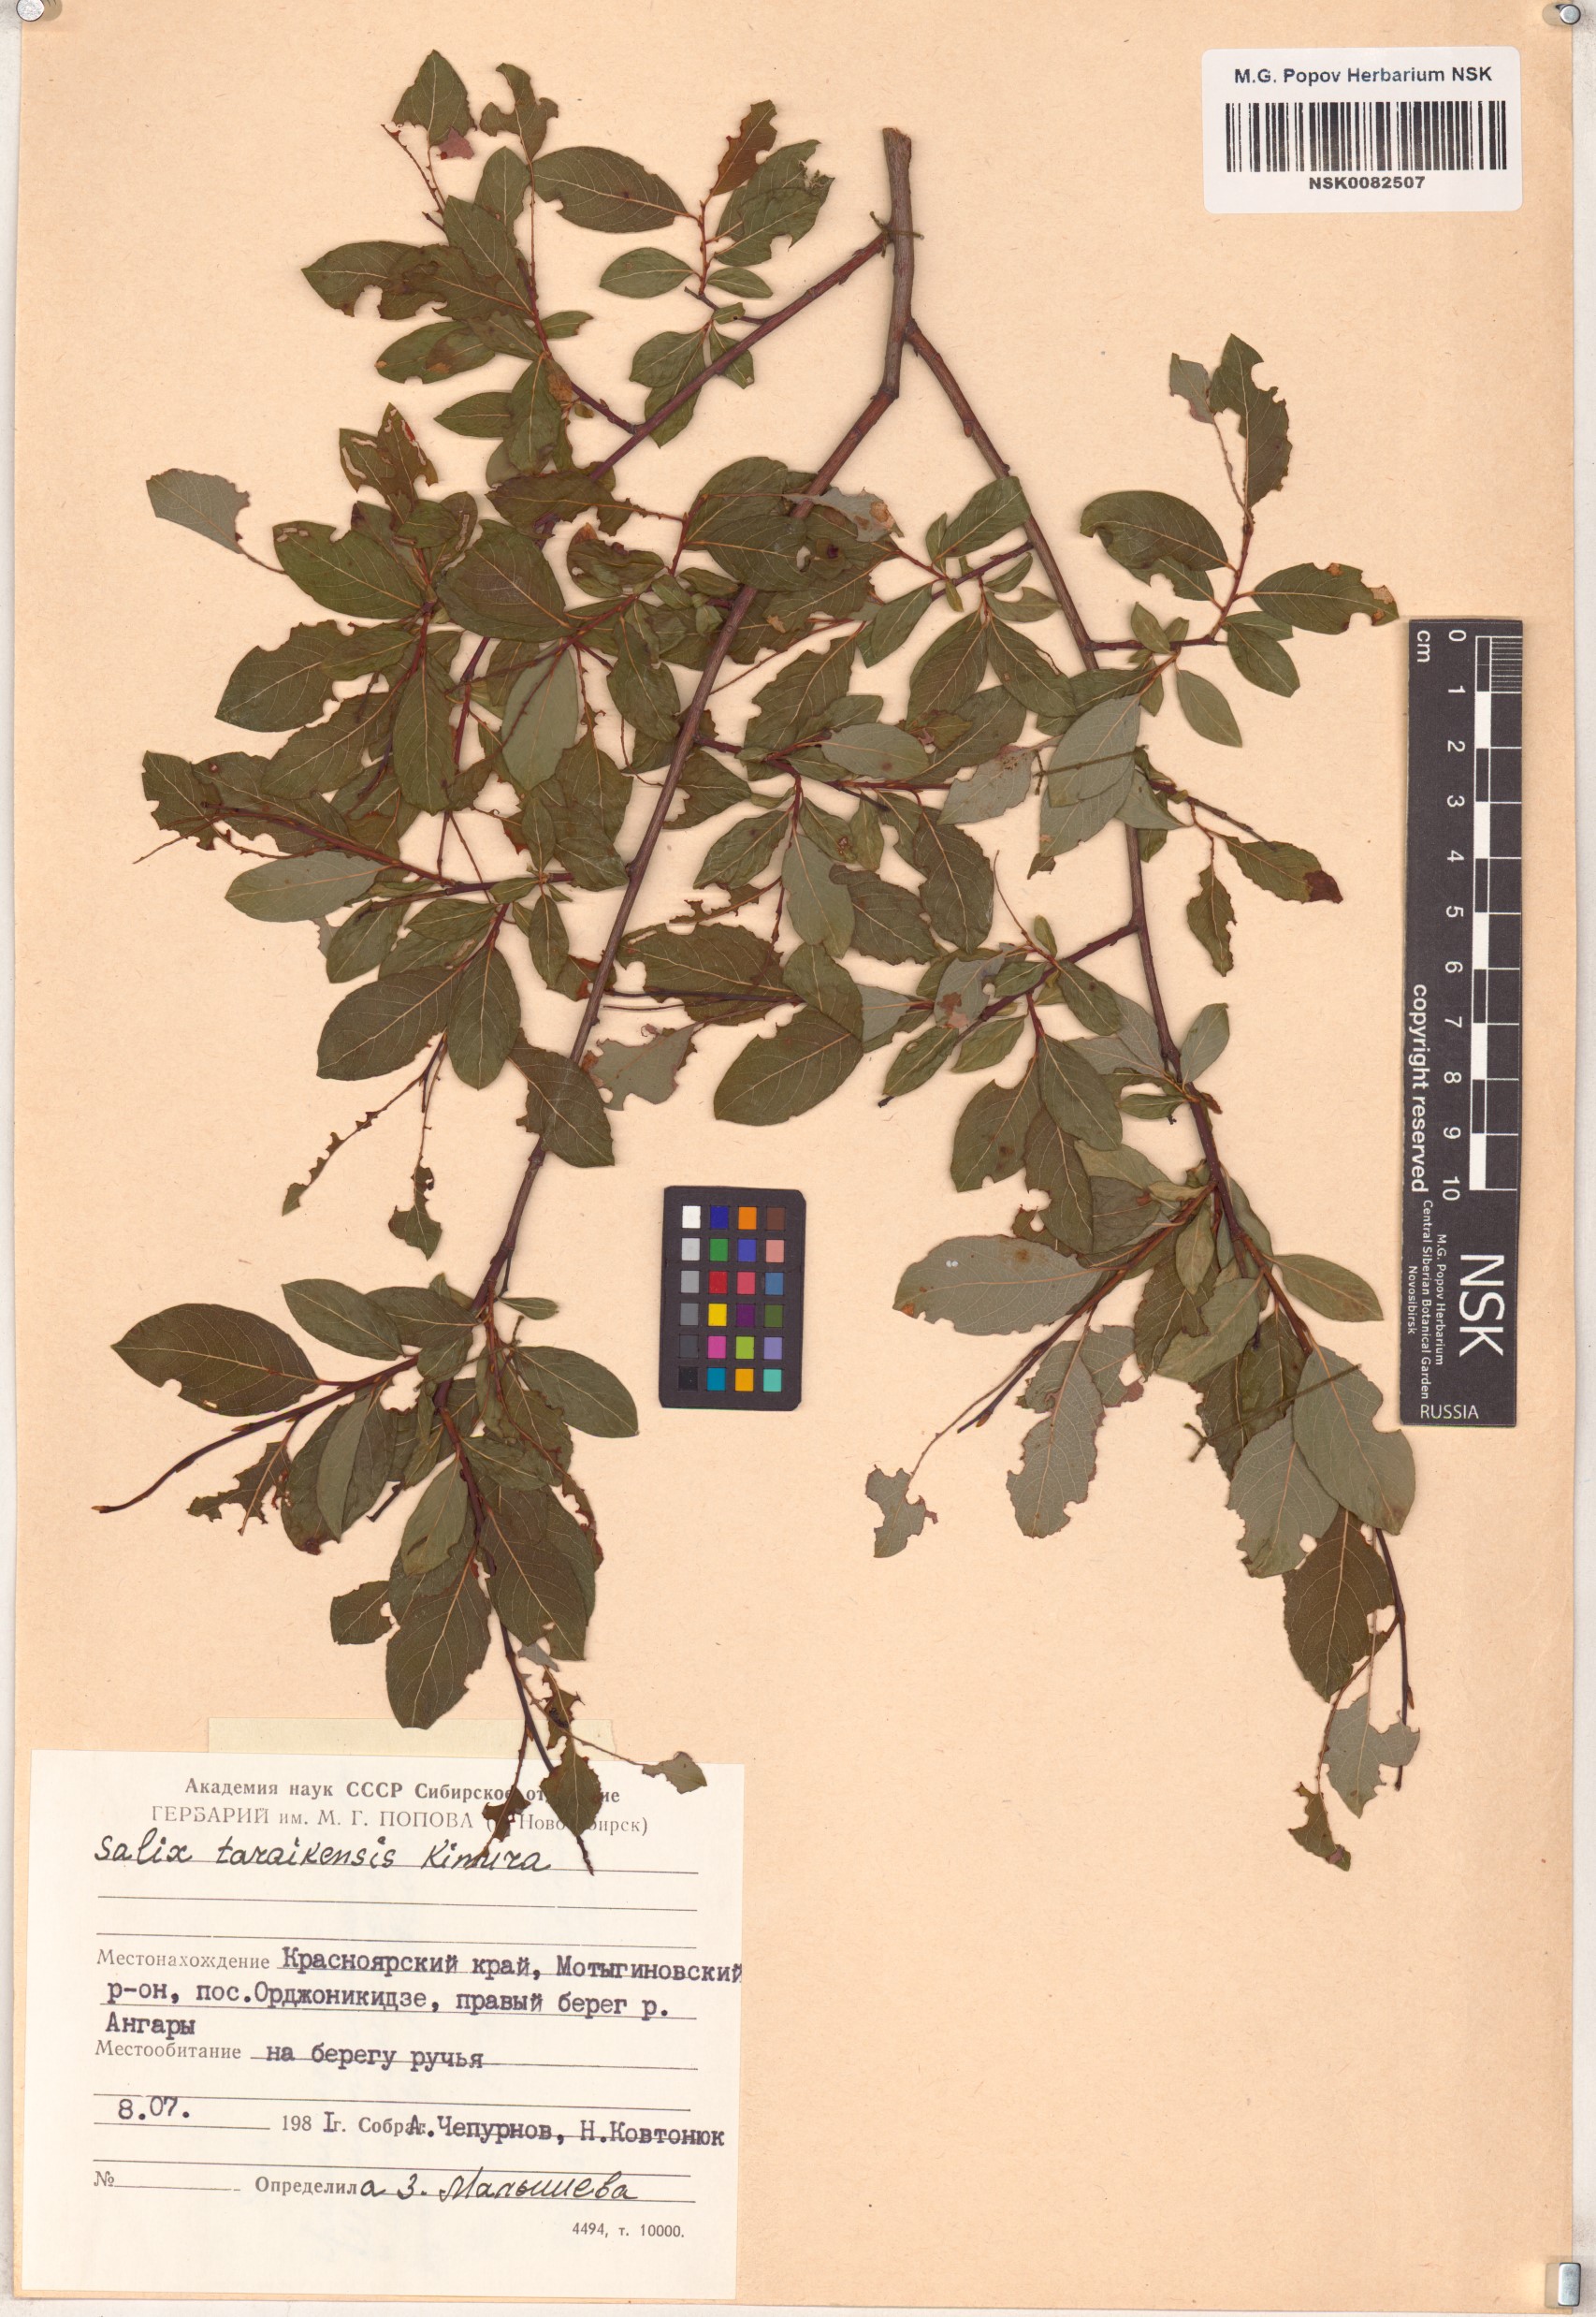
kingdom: Plantae
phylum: Tracheophyta
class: Magnoliopsida
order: Malpighiales
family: Salicaceae
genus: Salix
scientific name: Salix taraikensis
